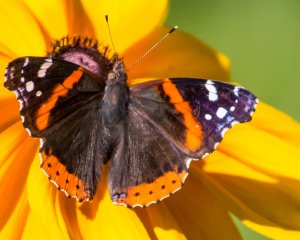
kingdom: Animalia
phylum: Arthropoda
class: Insecta
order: Lepidoptera
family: Nymphalidae
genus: Vanessa
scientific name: Vanessa atalanta
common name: Red Admiral
